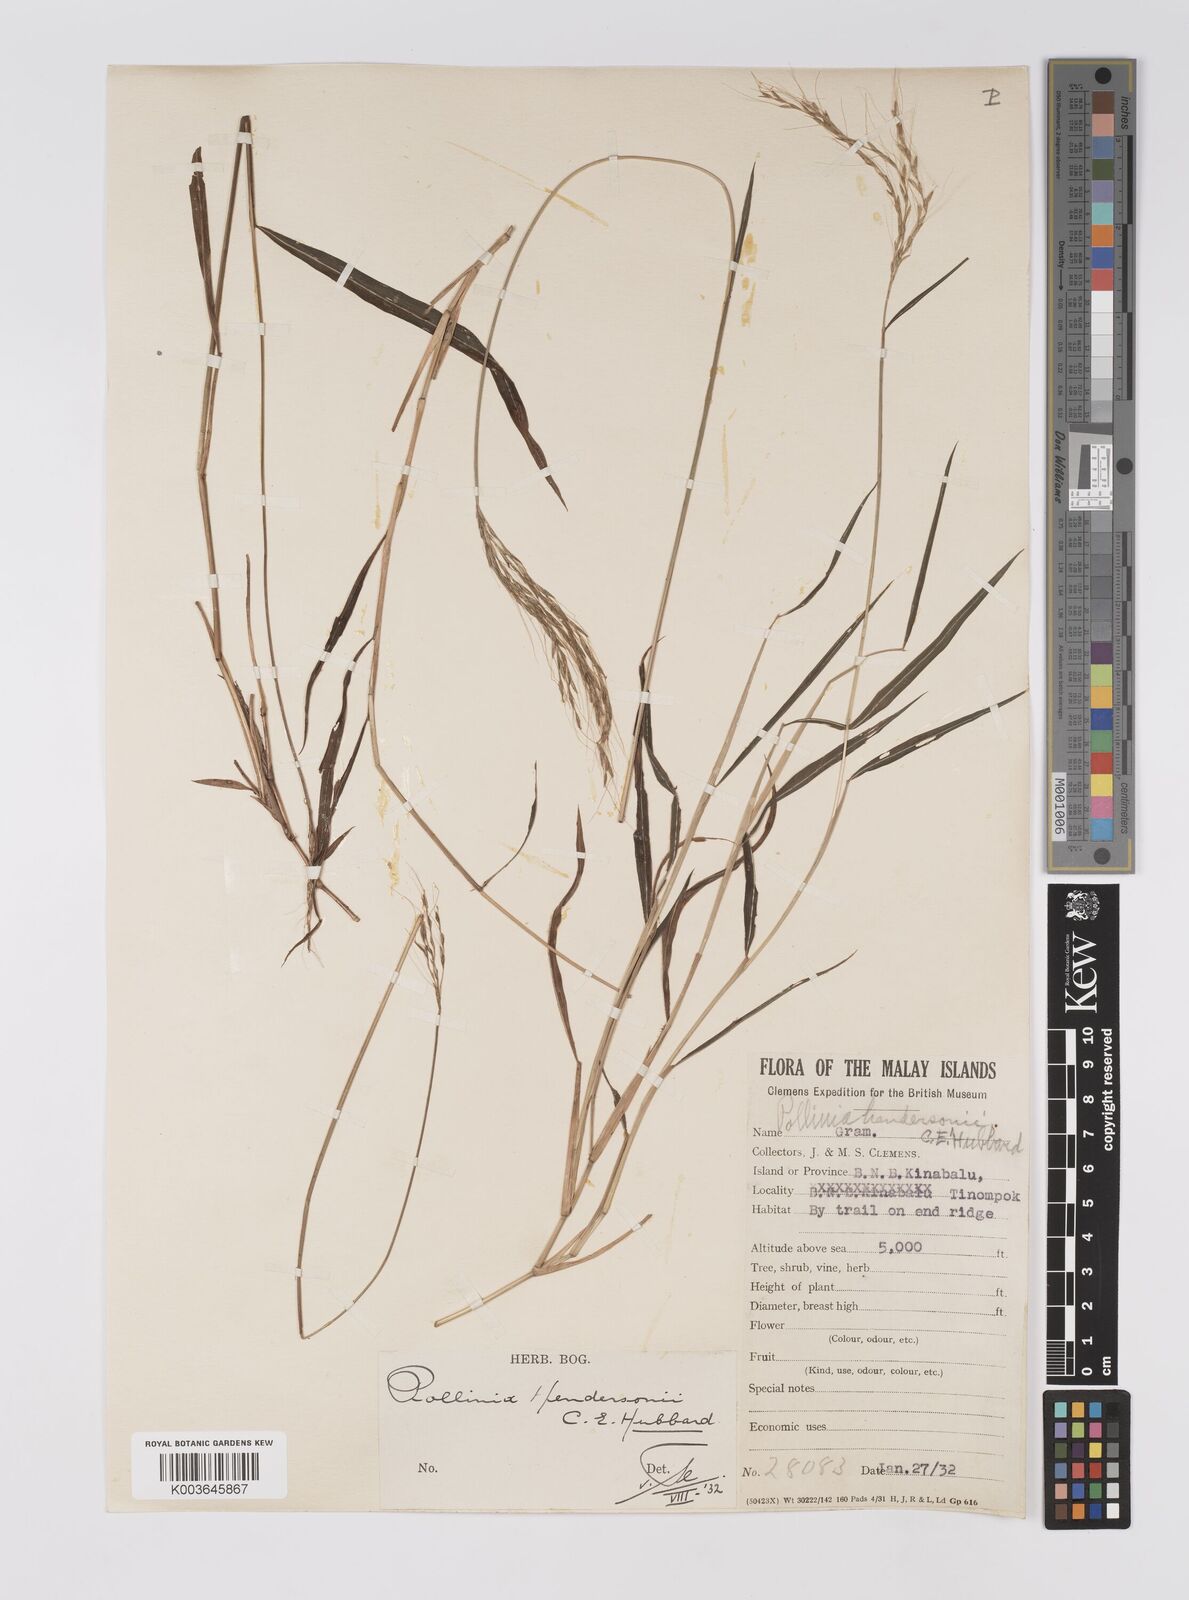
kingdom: Plantae
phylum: Tracheophyta
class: Liliopsida
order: Poales
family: Poaceae
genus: Microstegium
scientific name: Microstegium geniculatum
